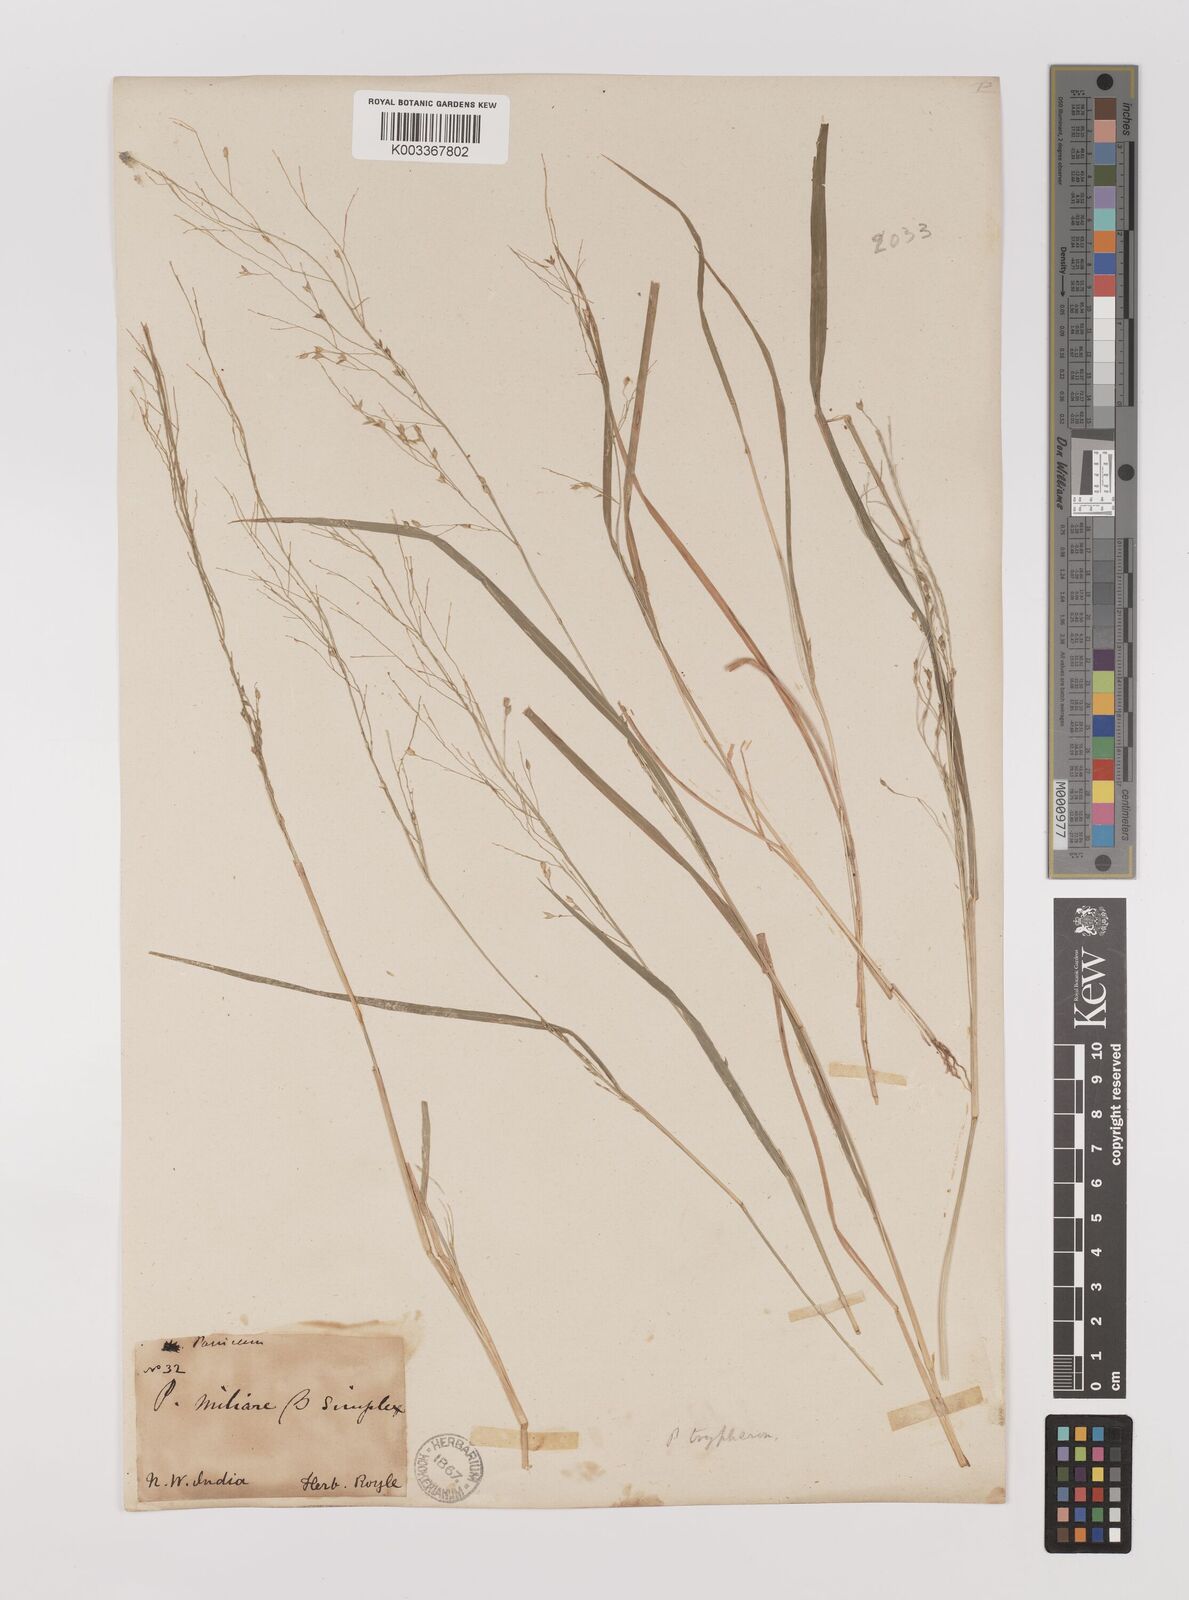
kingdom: Plantae
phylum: Tracheophyta
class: Liliopsida
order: Poales
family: Poaceae
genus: Panicum
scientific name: Panicum curviflorum
